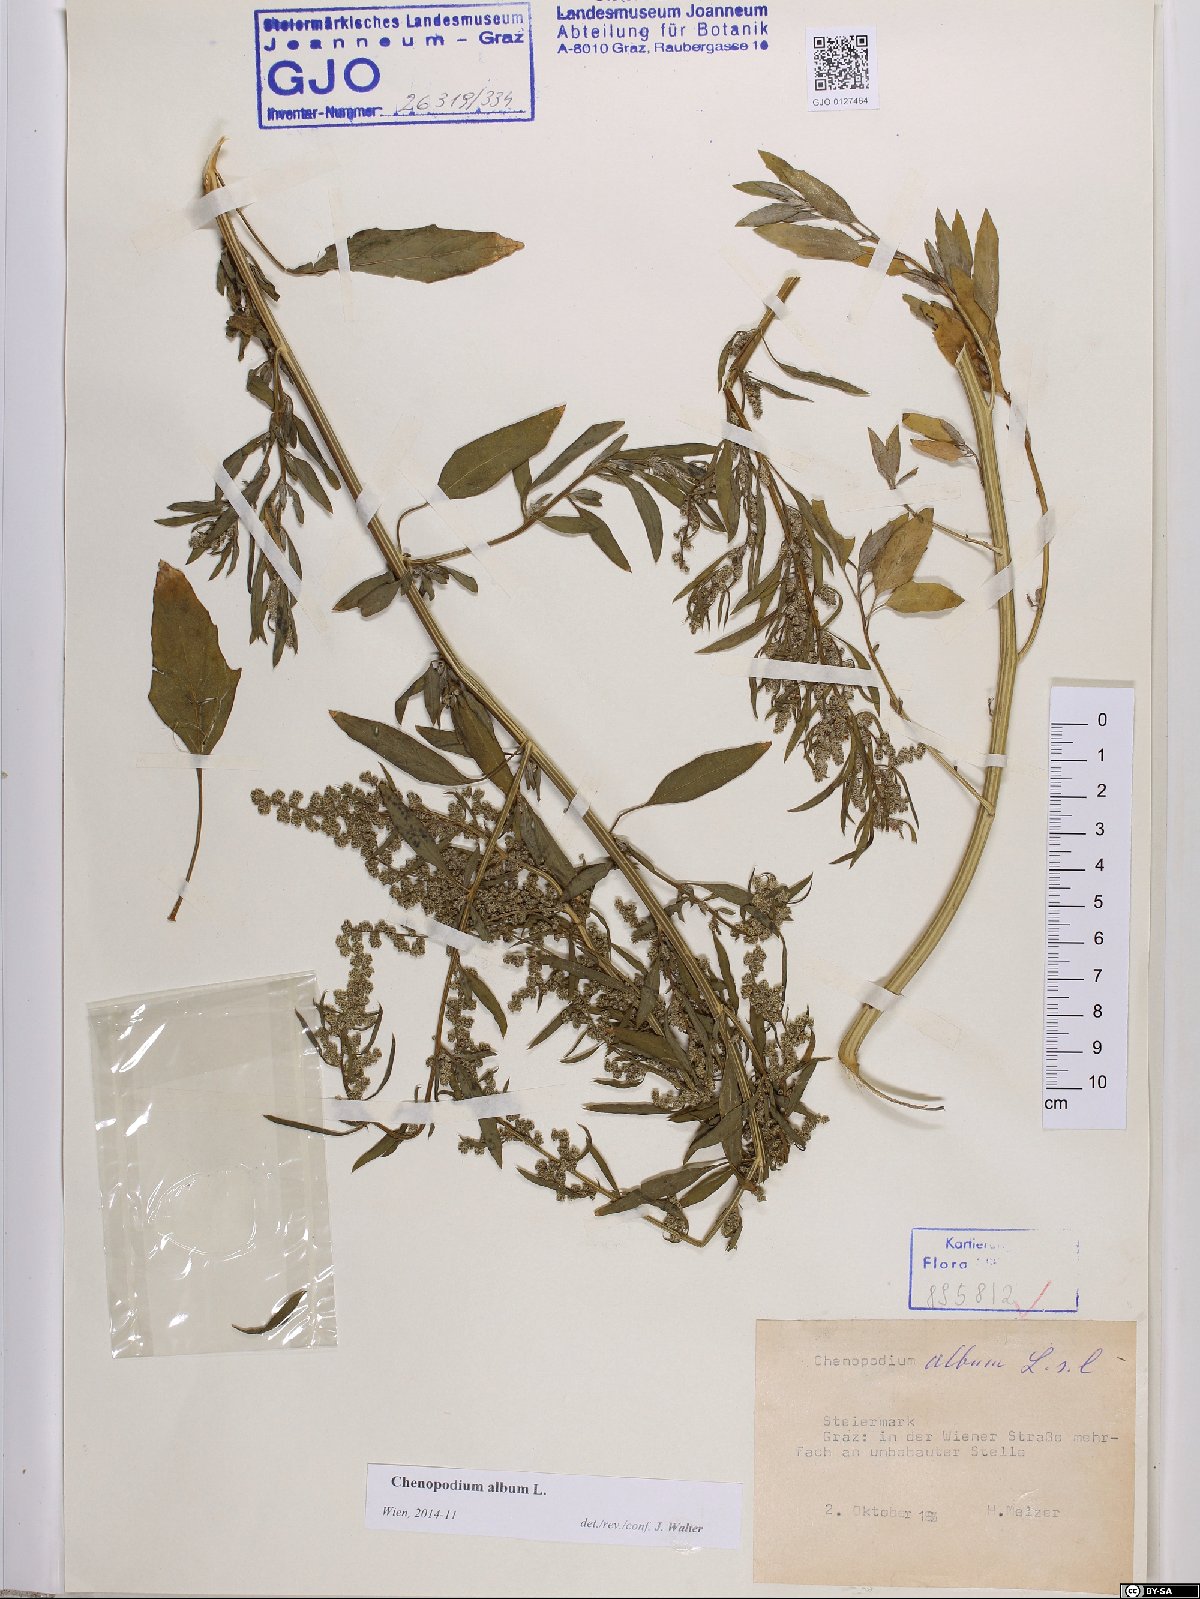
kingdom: Plantae
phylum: Tracheophyta
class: Magnoliopsida
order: Caryophyllales
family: Amaranthaceae
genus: Chenopodium
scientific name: Chenopodium album
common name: Fat-hen
